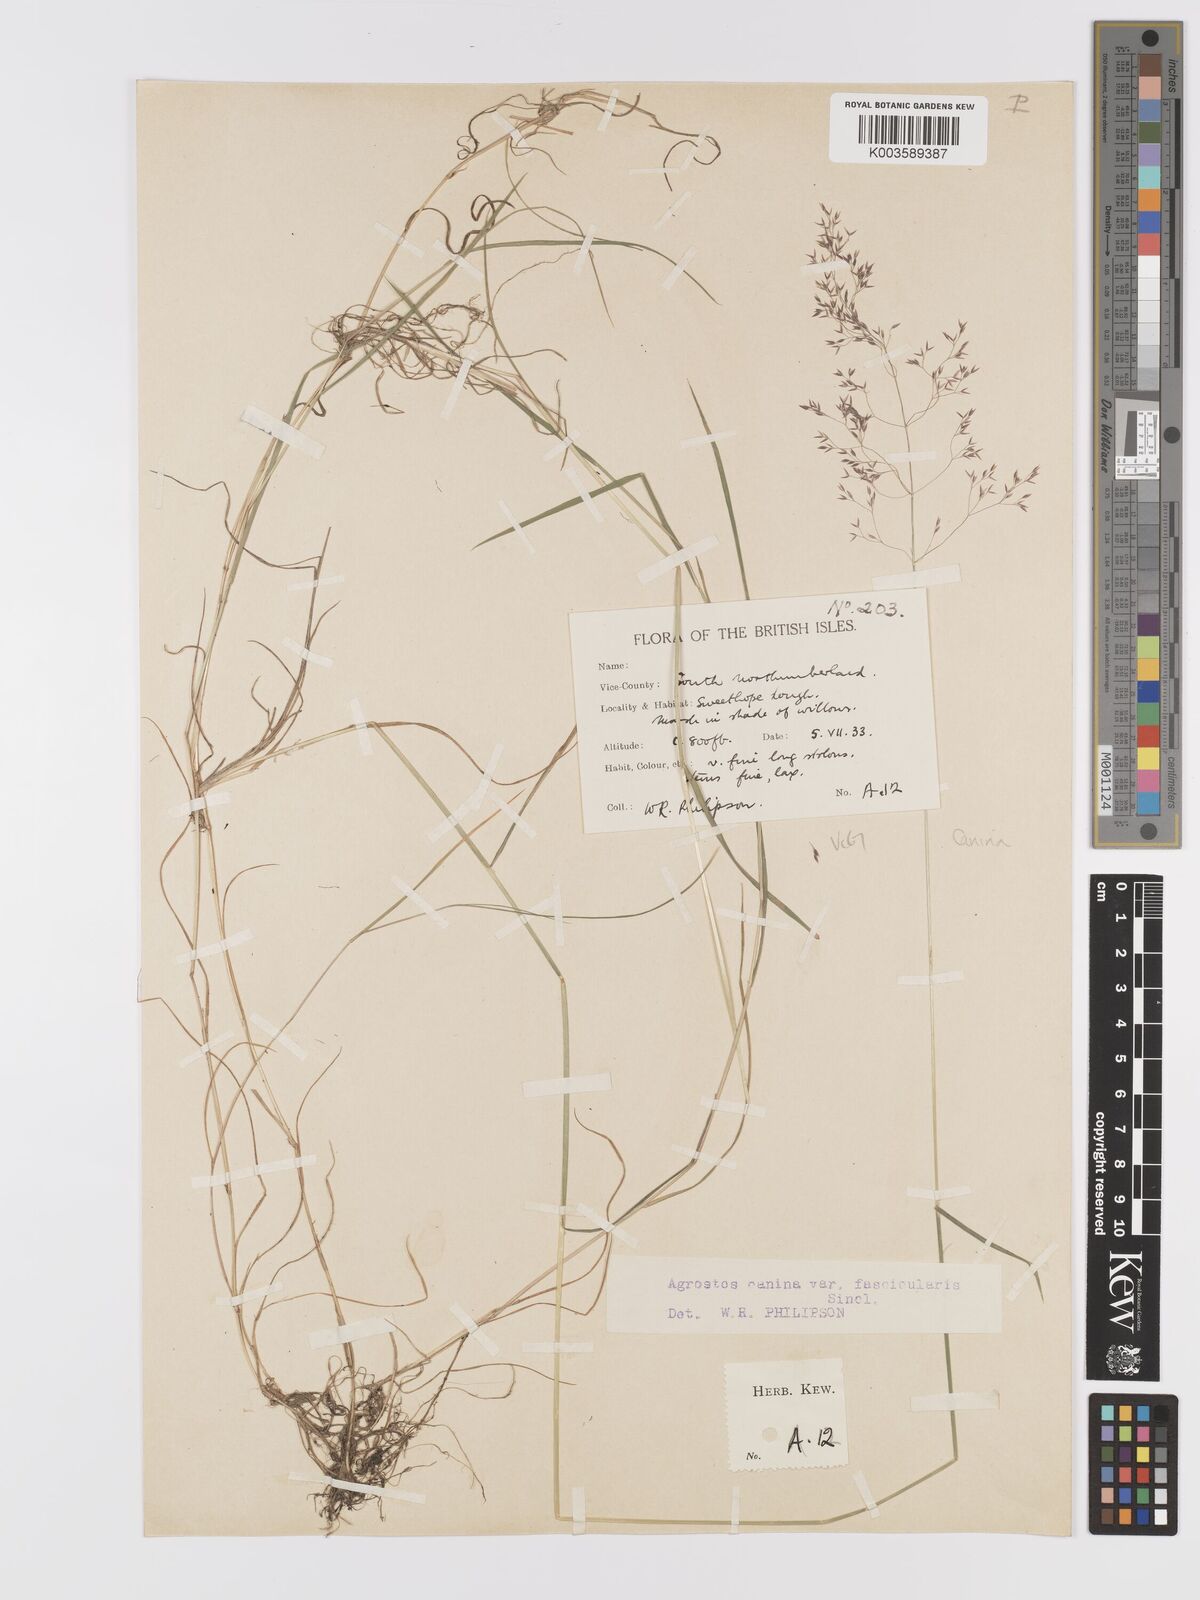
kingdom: Plantae
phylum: Tracheophyta
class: Liliopsida
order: Poales
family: Poaceae
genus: Agrostis
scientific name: Agrostis canina
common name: Velvet bent
